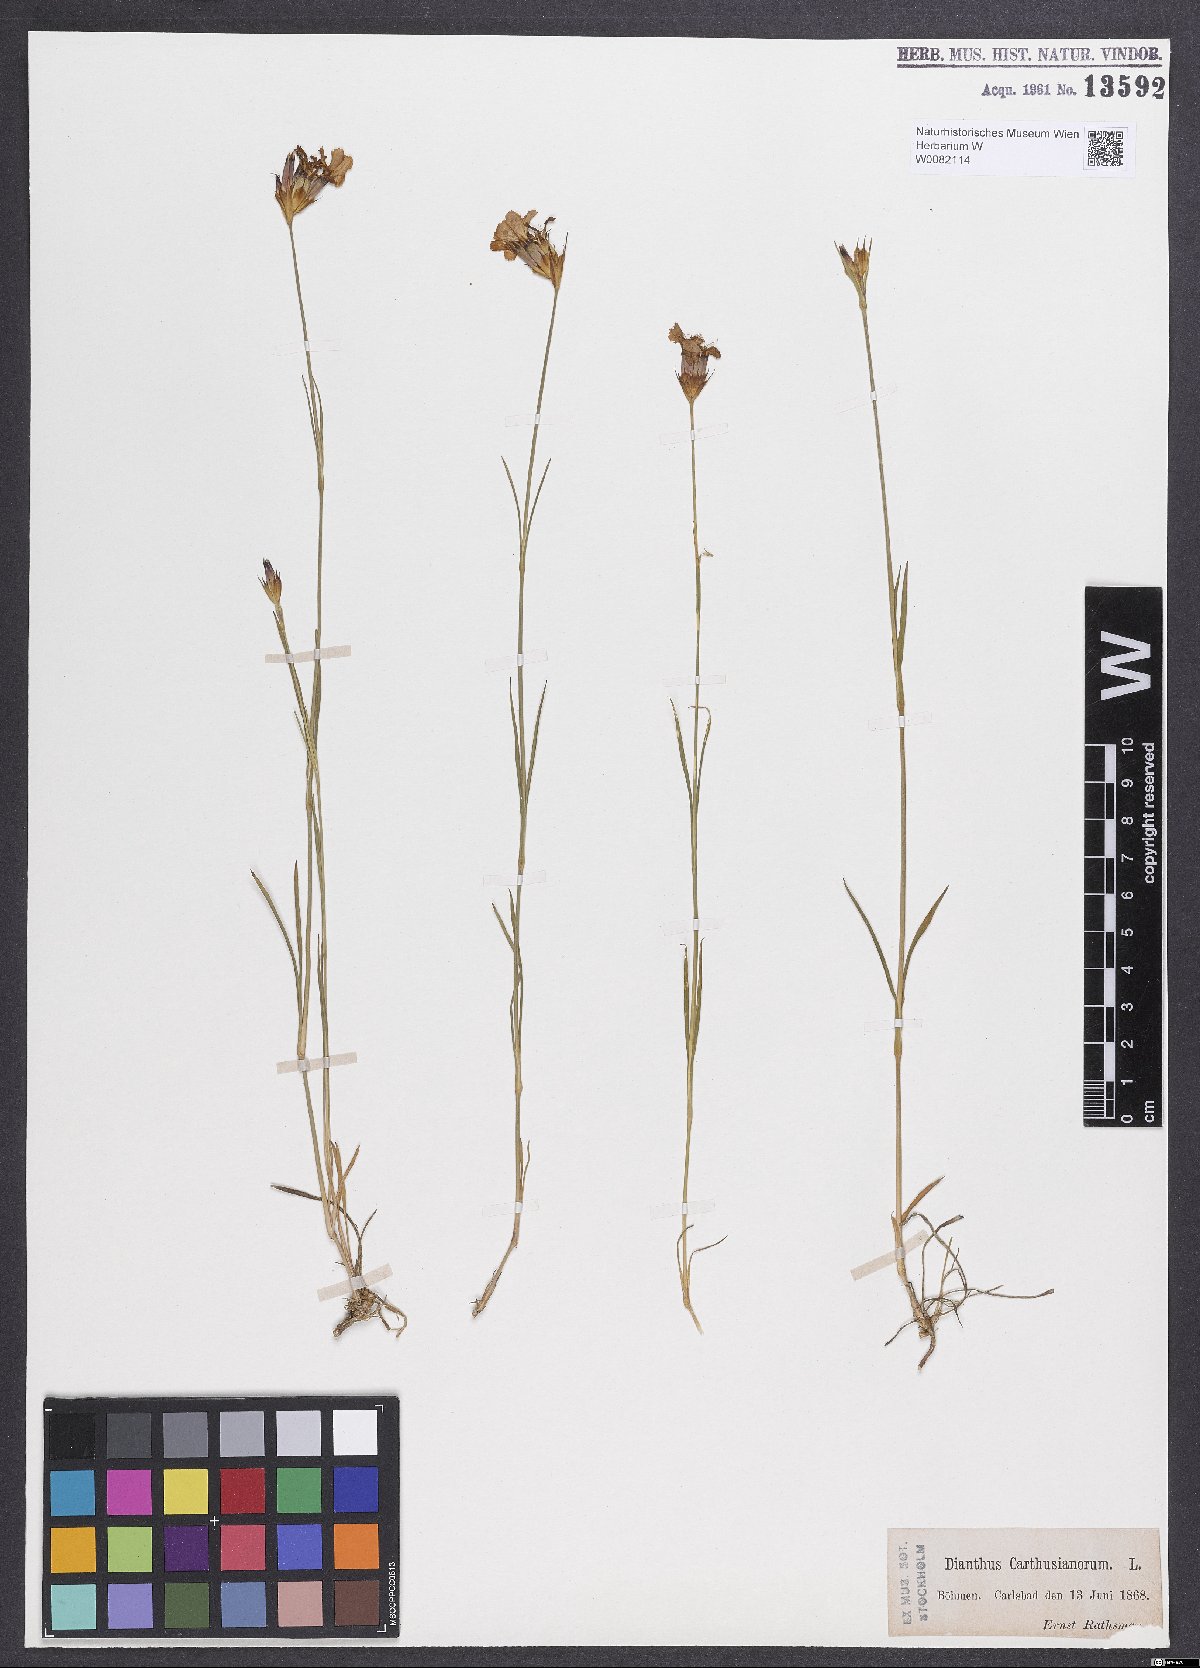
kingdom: Plantae
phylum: Tracheophyta
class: Magnoliopsida
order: Caryophyllales
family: Caryophyllaceae
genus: Dianthus
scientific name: Dianthus carthusianorum
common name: Carthusian pink
